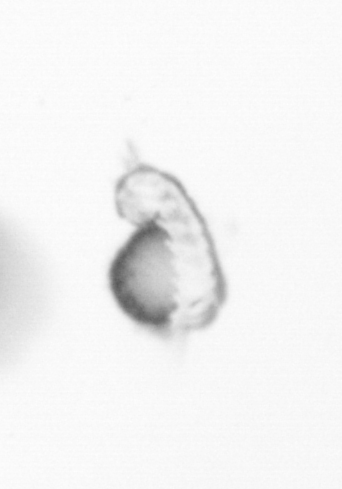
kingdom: Animalia
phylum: Annelida
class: Polychaeta
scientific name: Polychaeta
